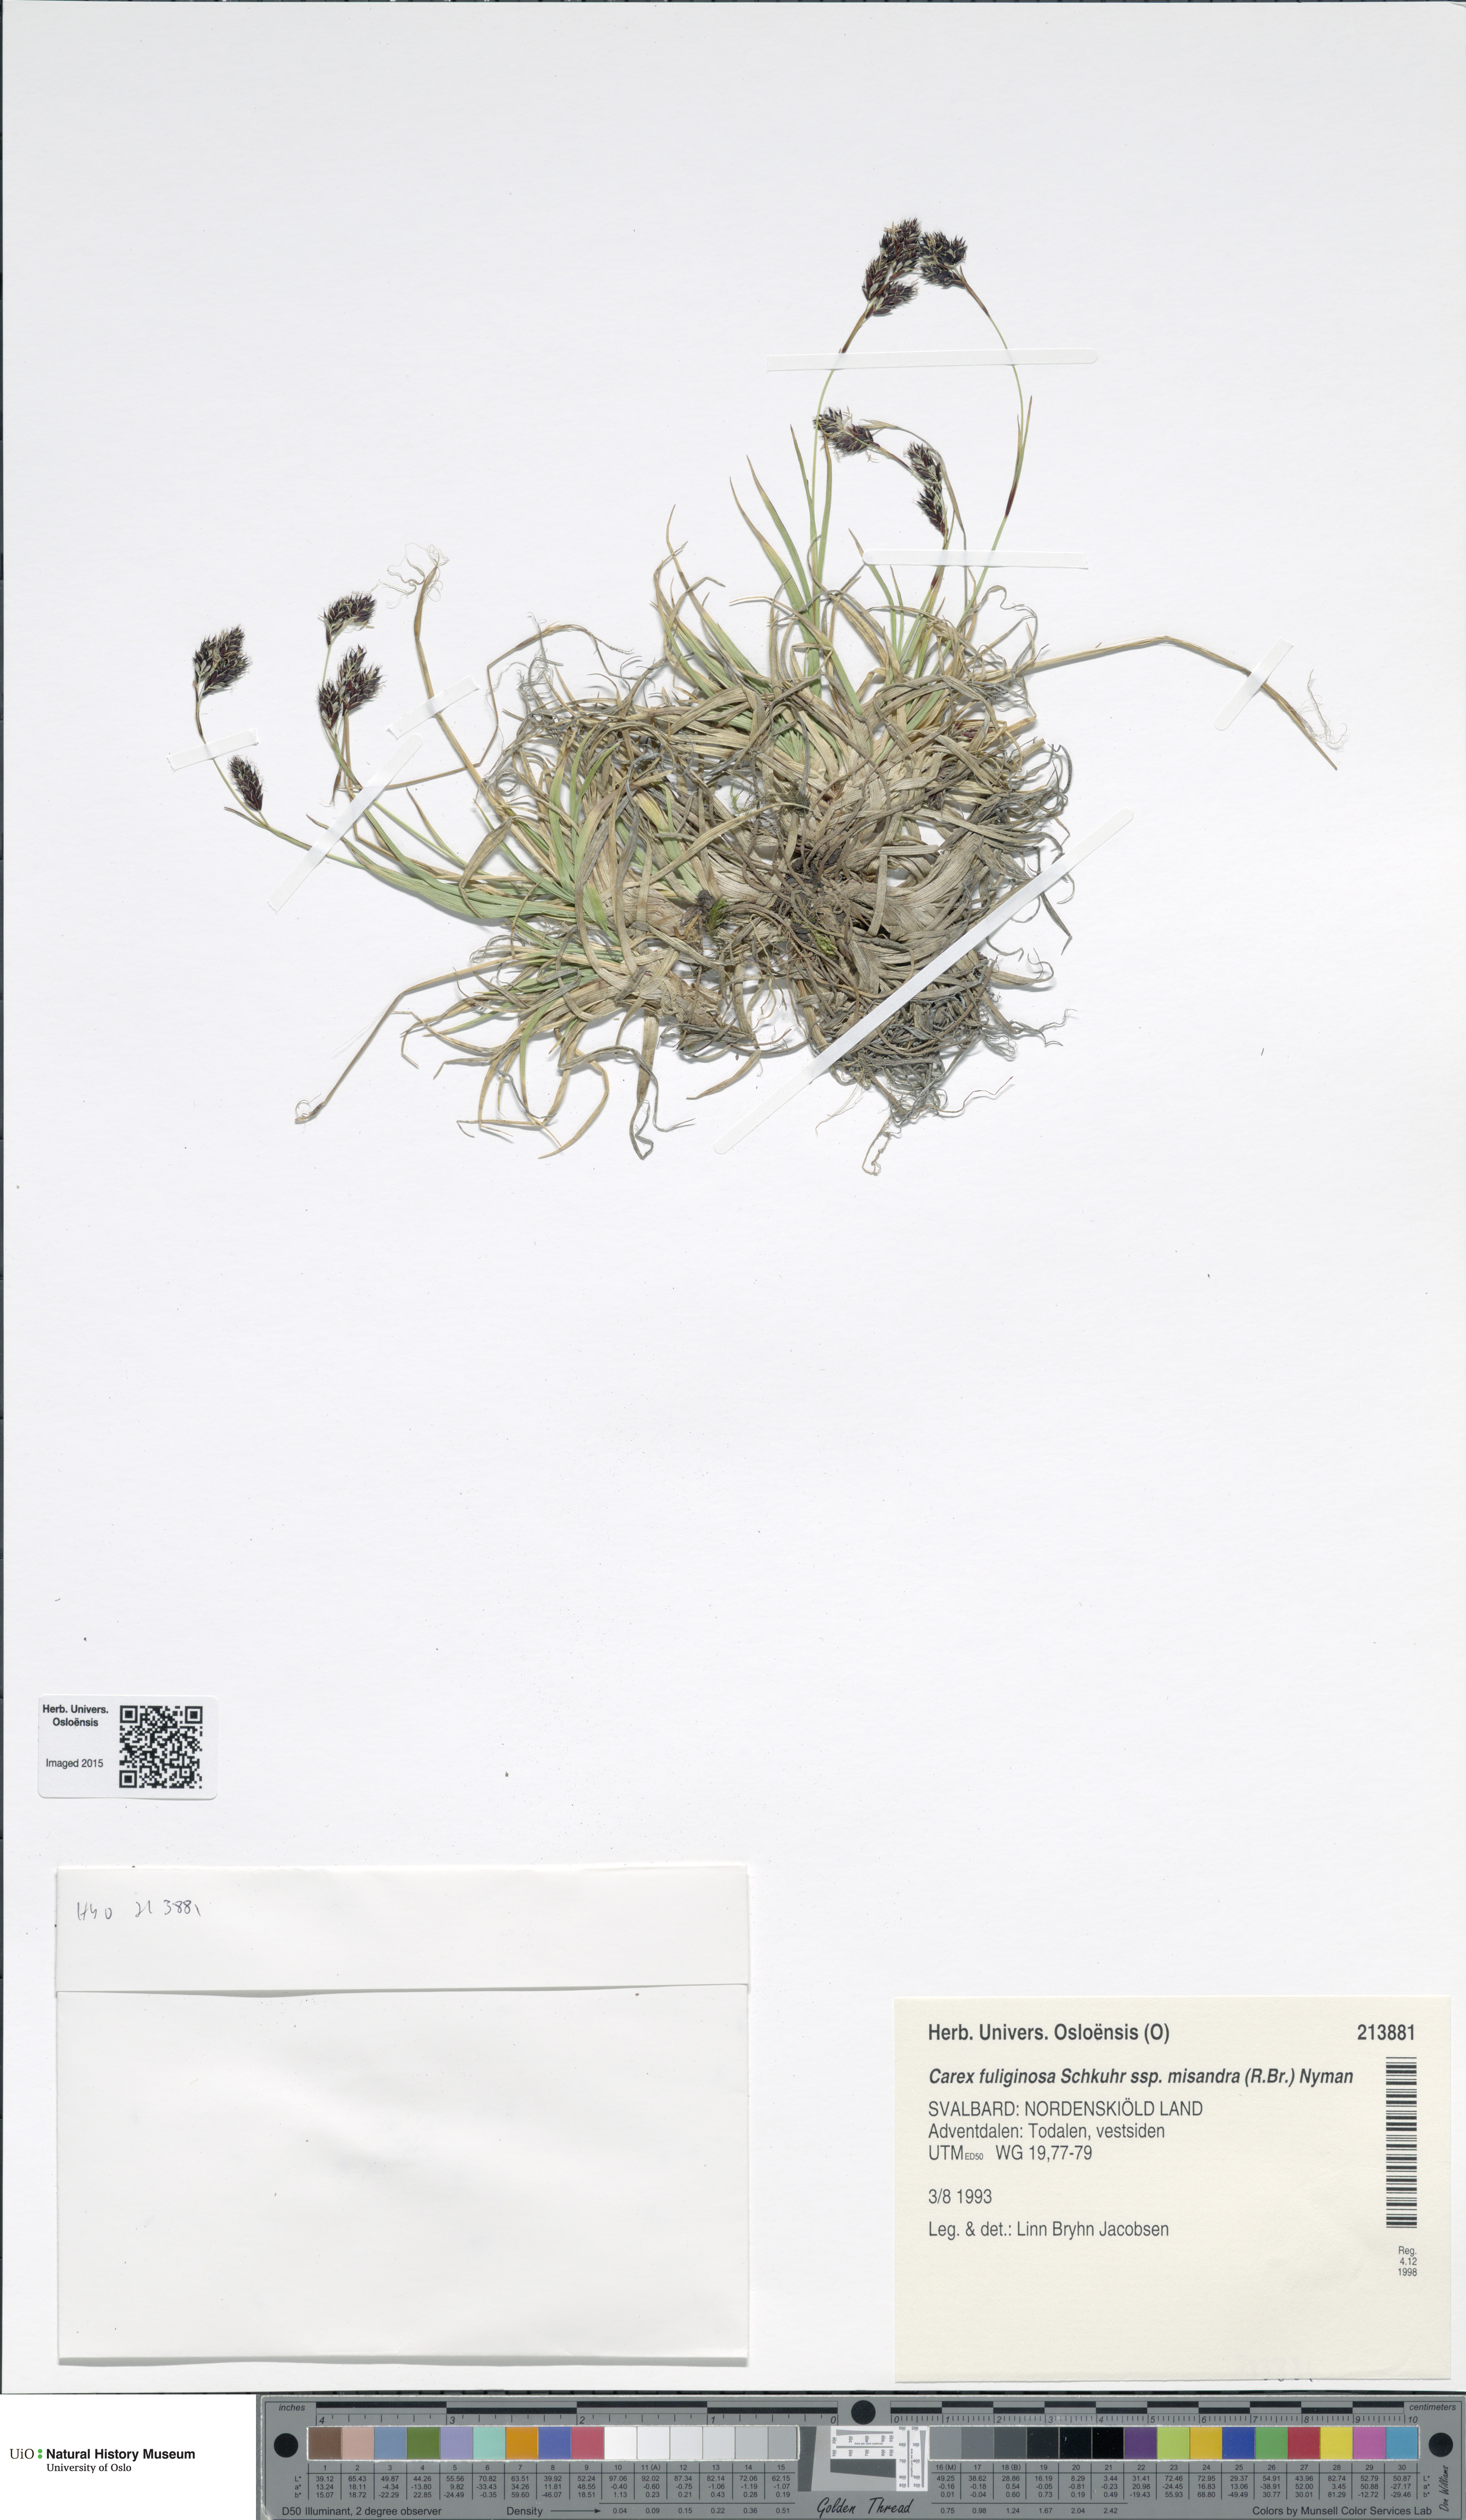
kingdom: Plantae
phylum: Tracheophyta
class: Liliopsida
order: Poales
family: Cyperaceae
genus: Carex
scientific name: Carex fuliginosa
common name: Few-flowered sedge
